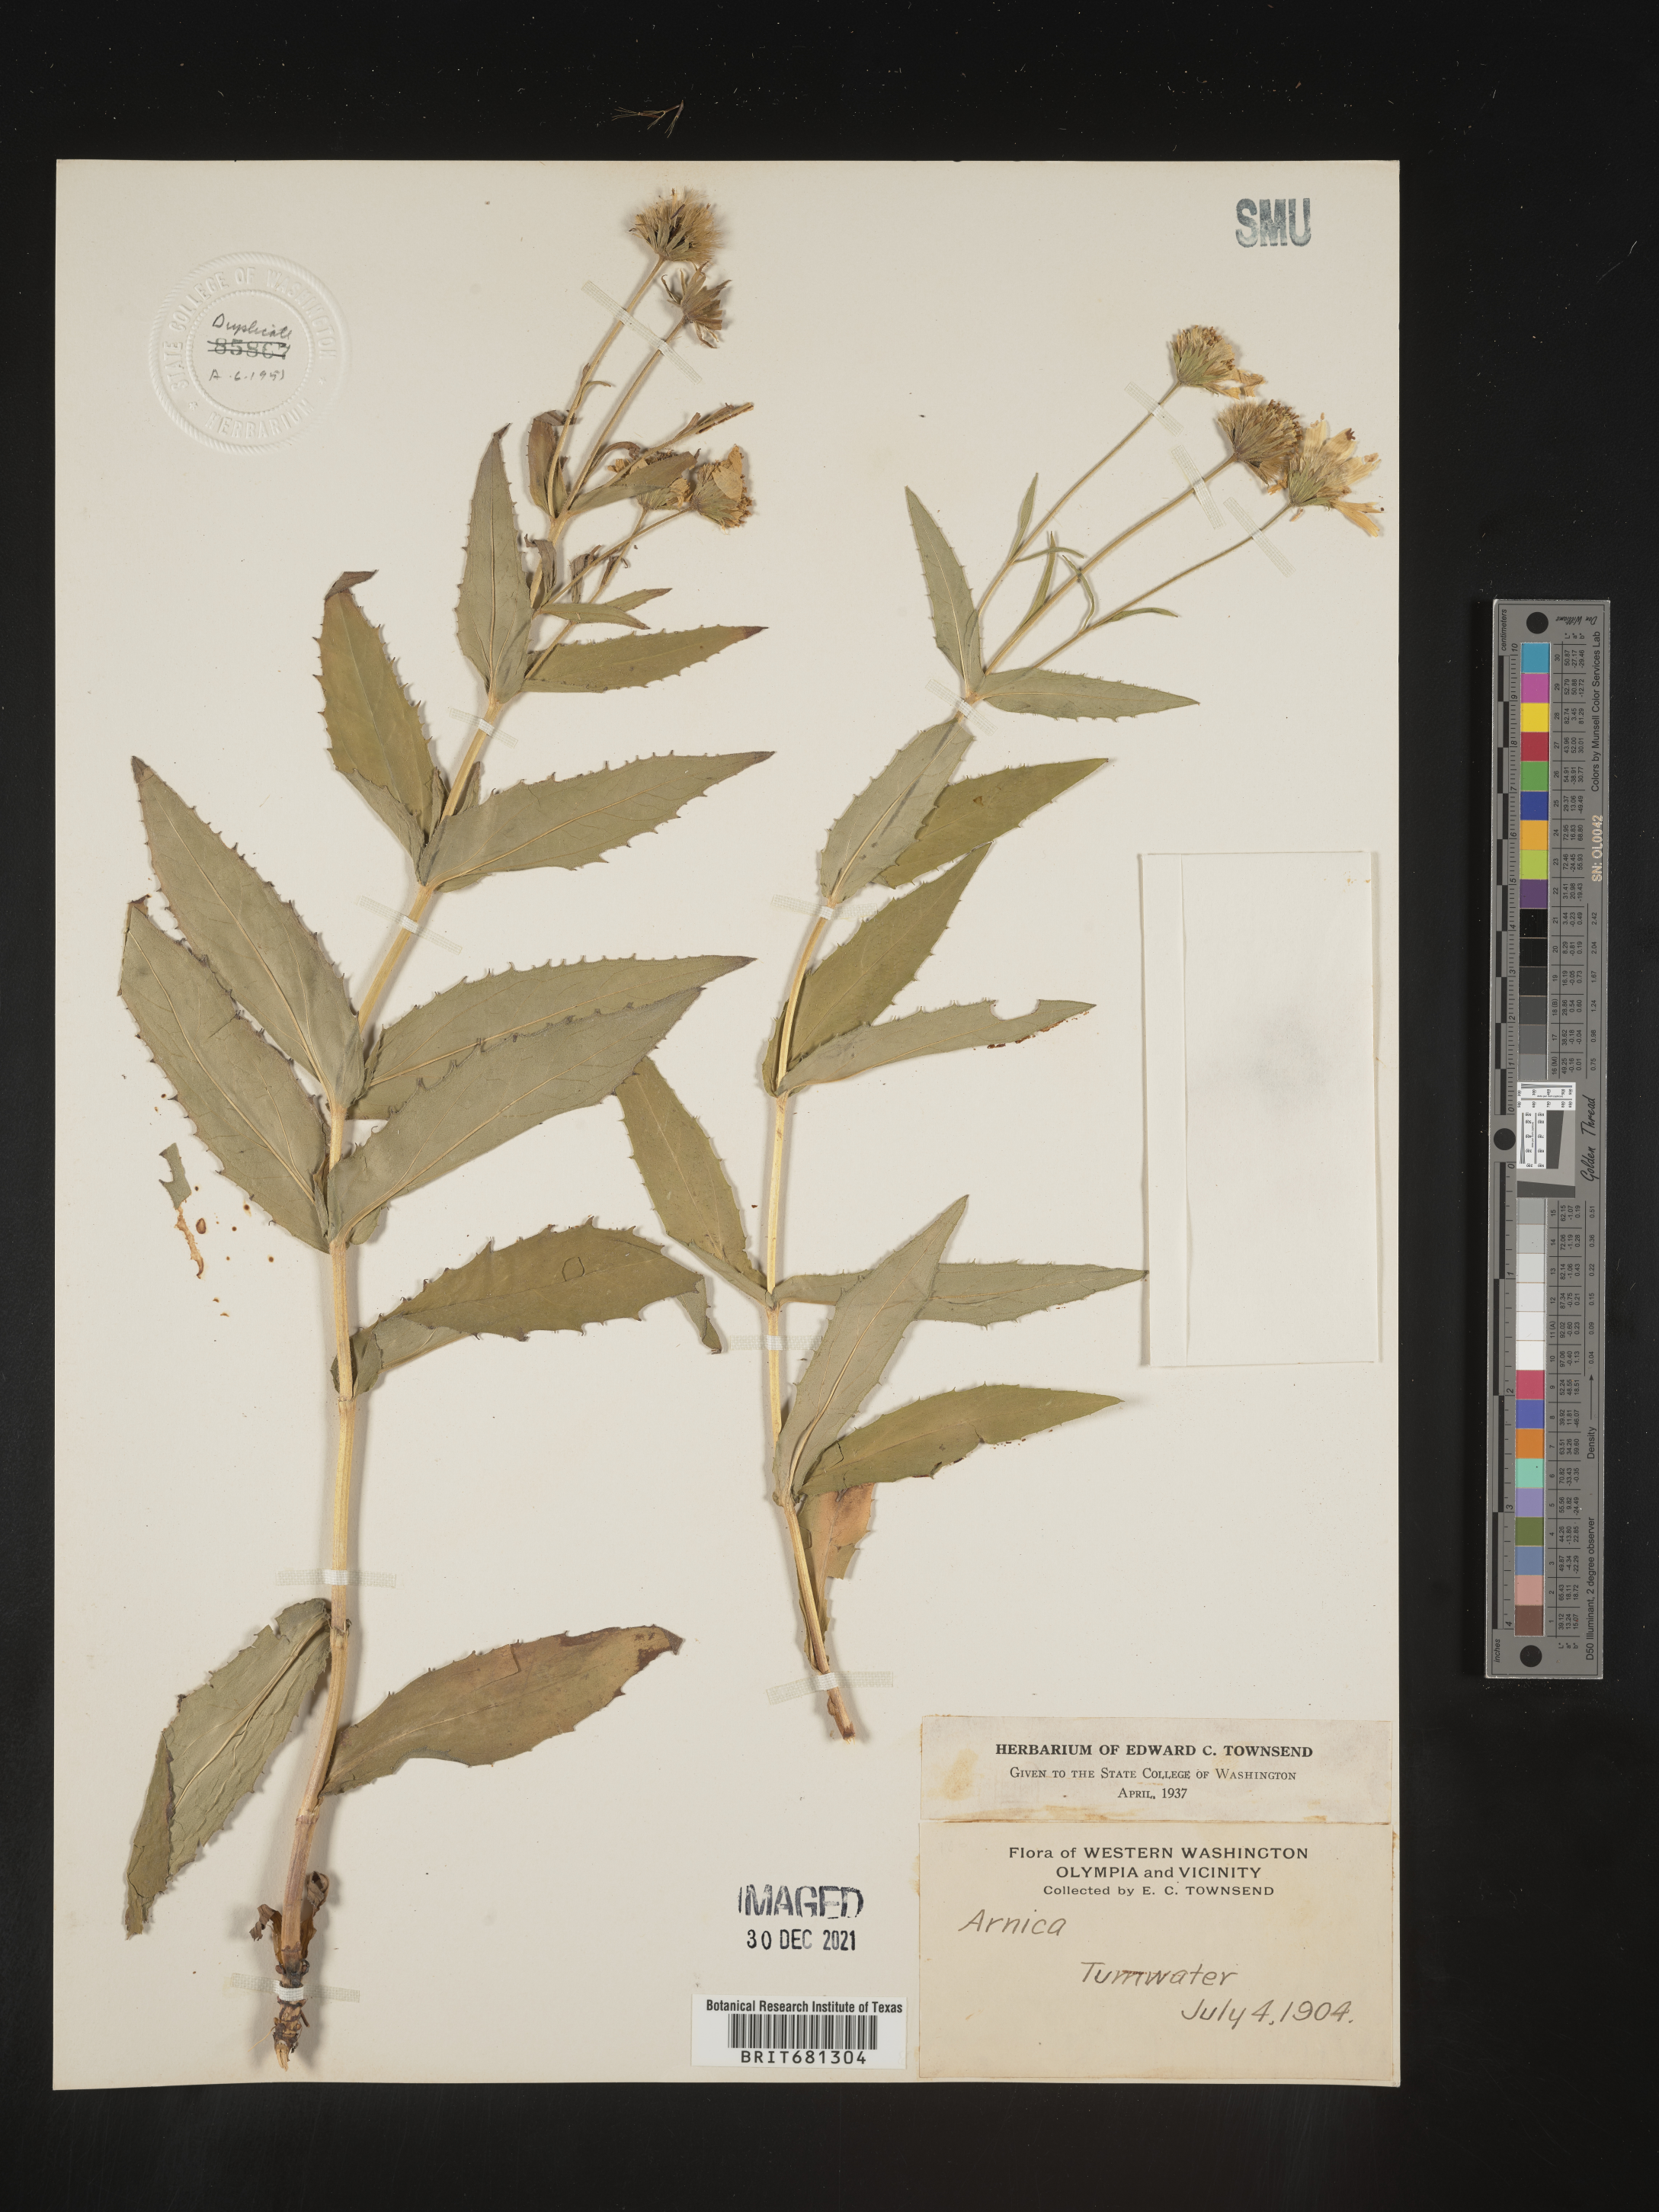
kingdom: Plantae
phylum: Tracheophyta
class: Magnoliopsida
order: Asterales
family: Asteraceae
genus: Arnica
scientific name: Arnica
